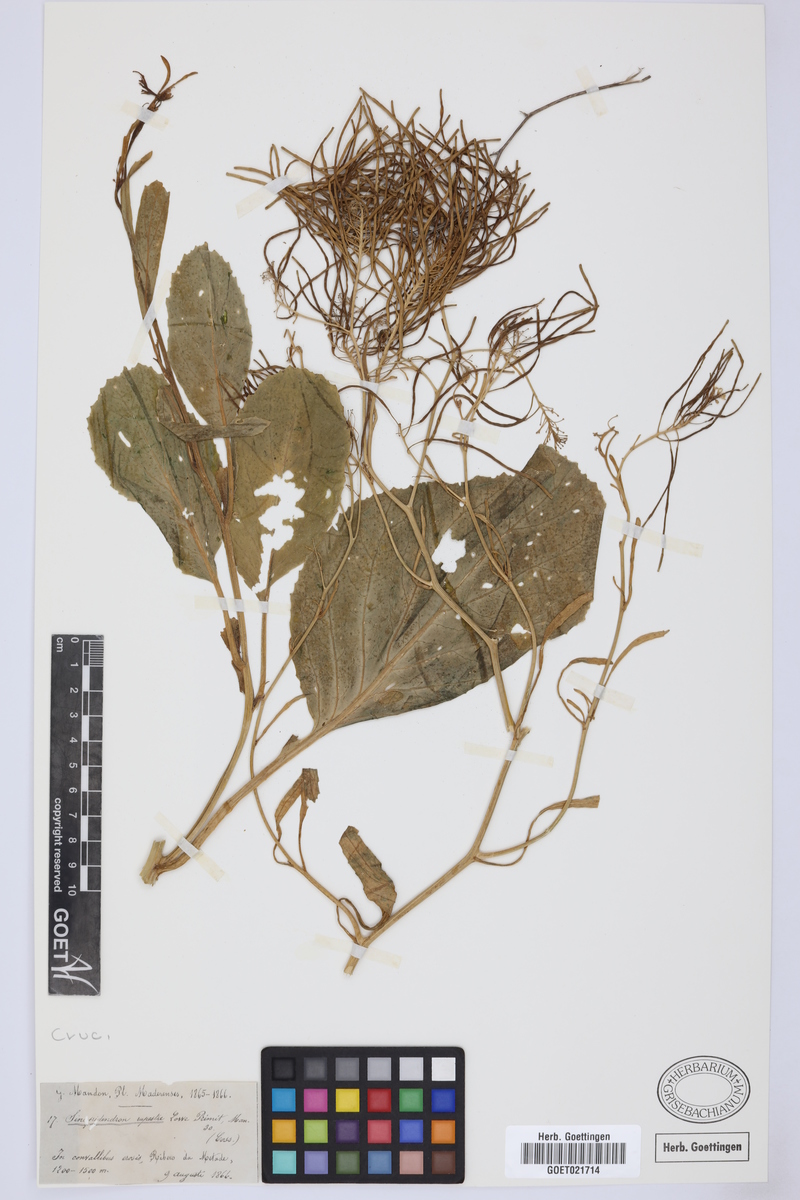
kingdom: Plantae
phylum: Tracheophyta
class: Magnoliopsida
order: Brassicales
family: Brassicaceae
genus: Sinapidendron
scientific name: Sinapidendron rupestre
